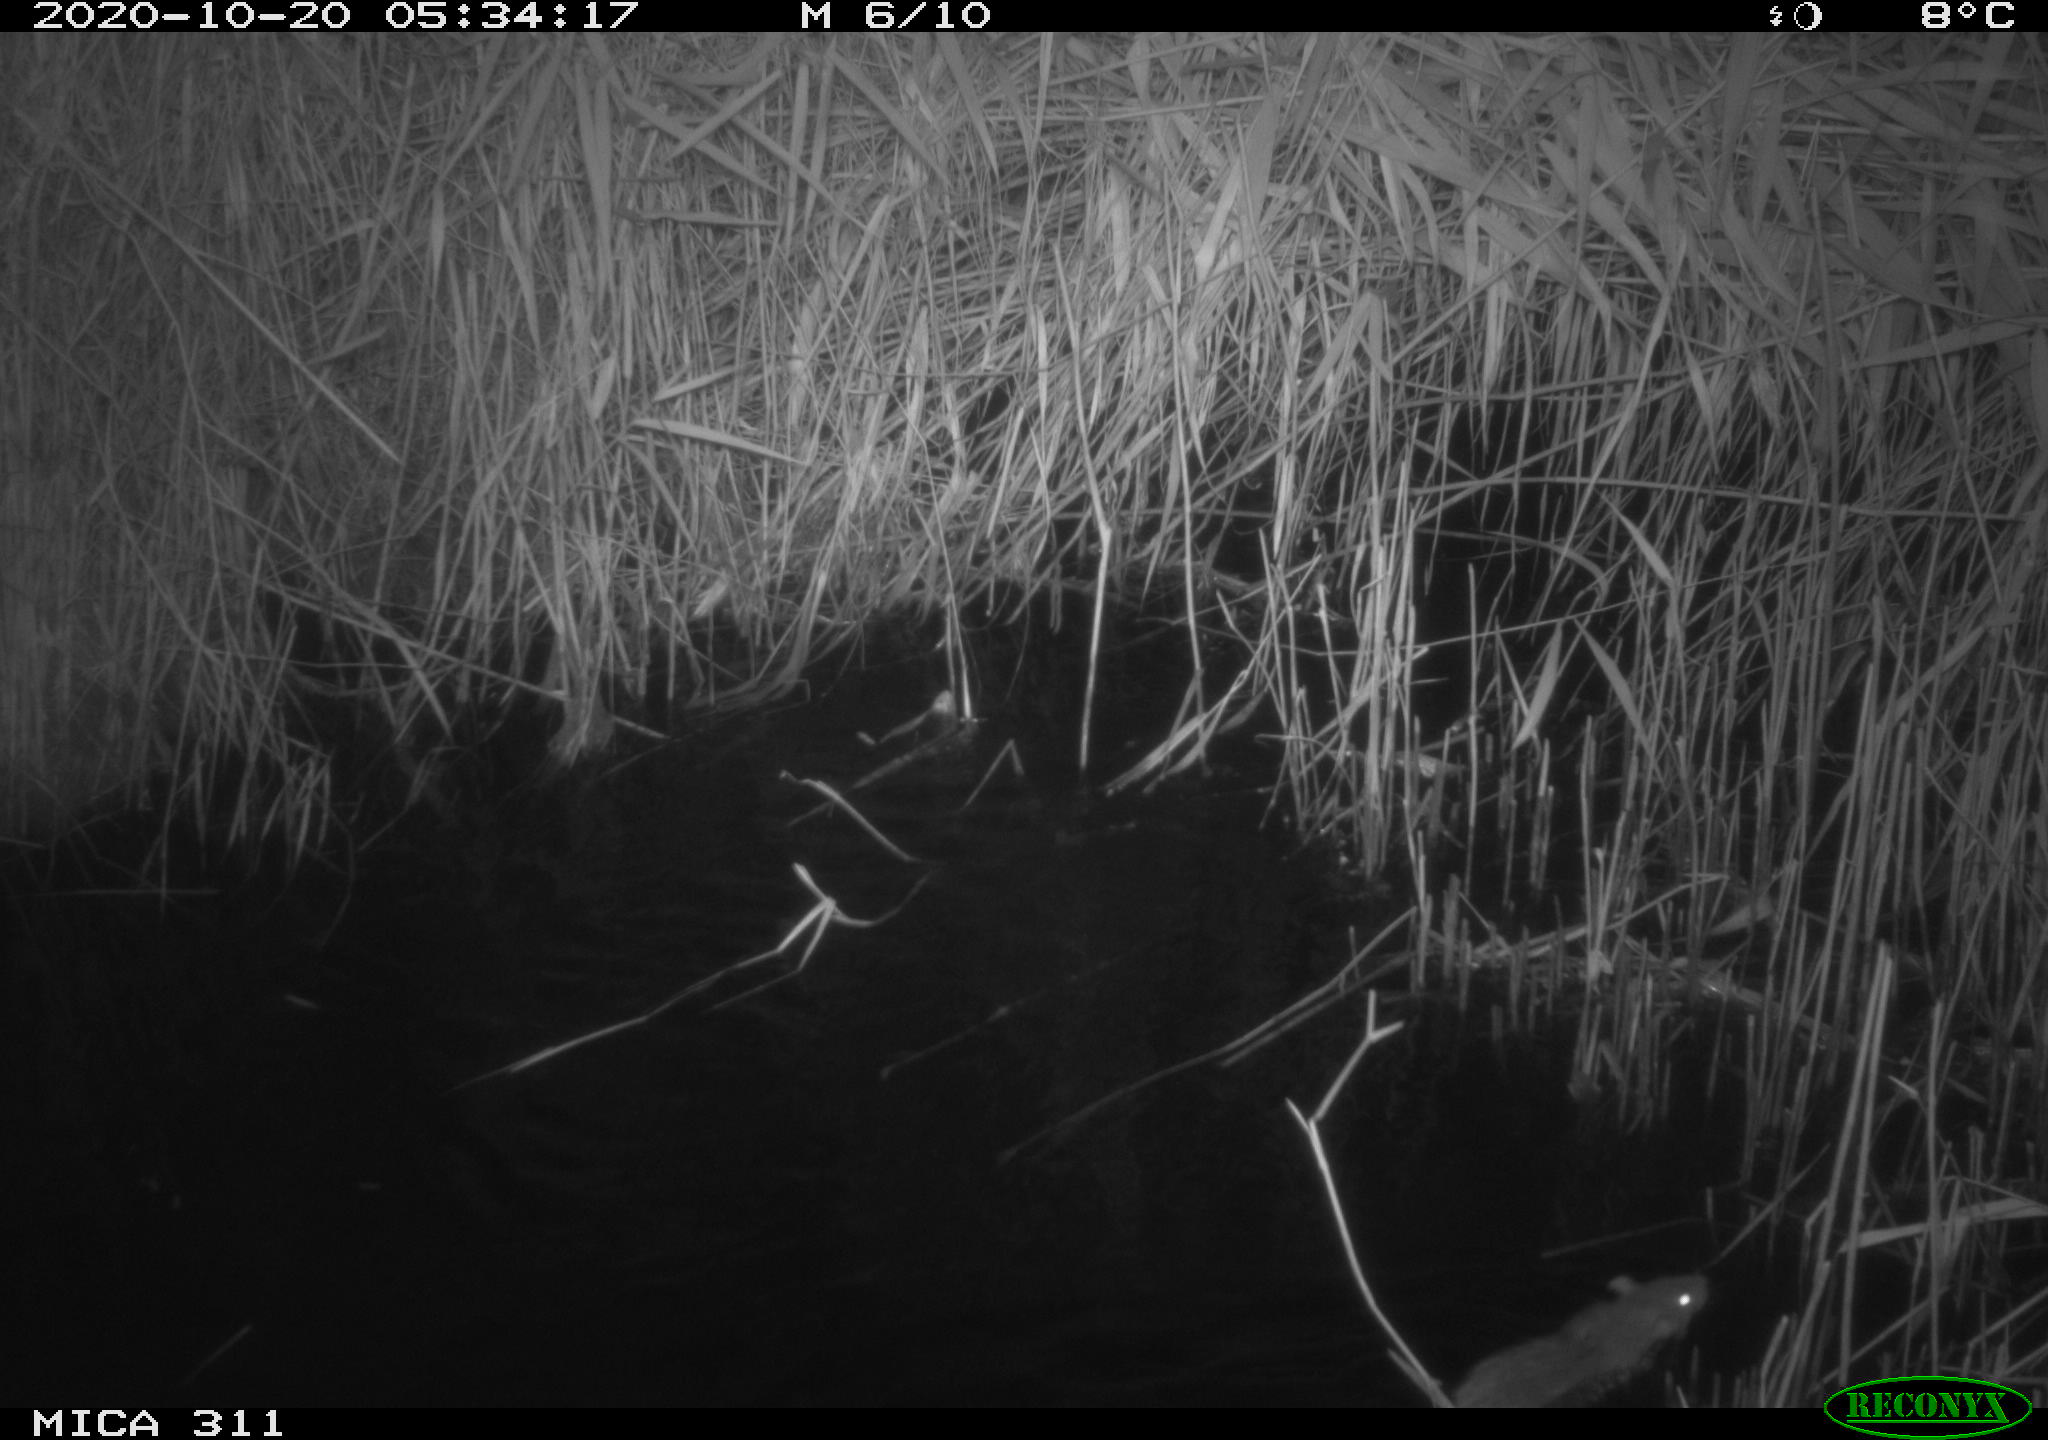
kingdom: Animalia
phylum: Chordata
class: Mammalia
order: Rodentia
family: Muridae
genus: Rattus
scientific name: Rattus norvegicus
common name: Brown rat
